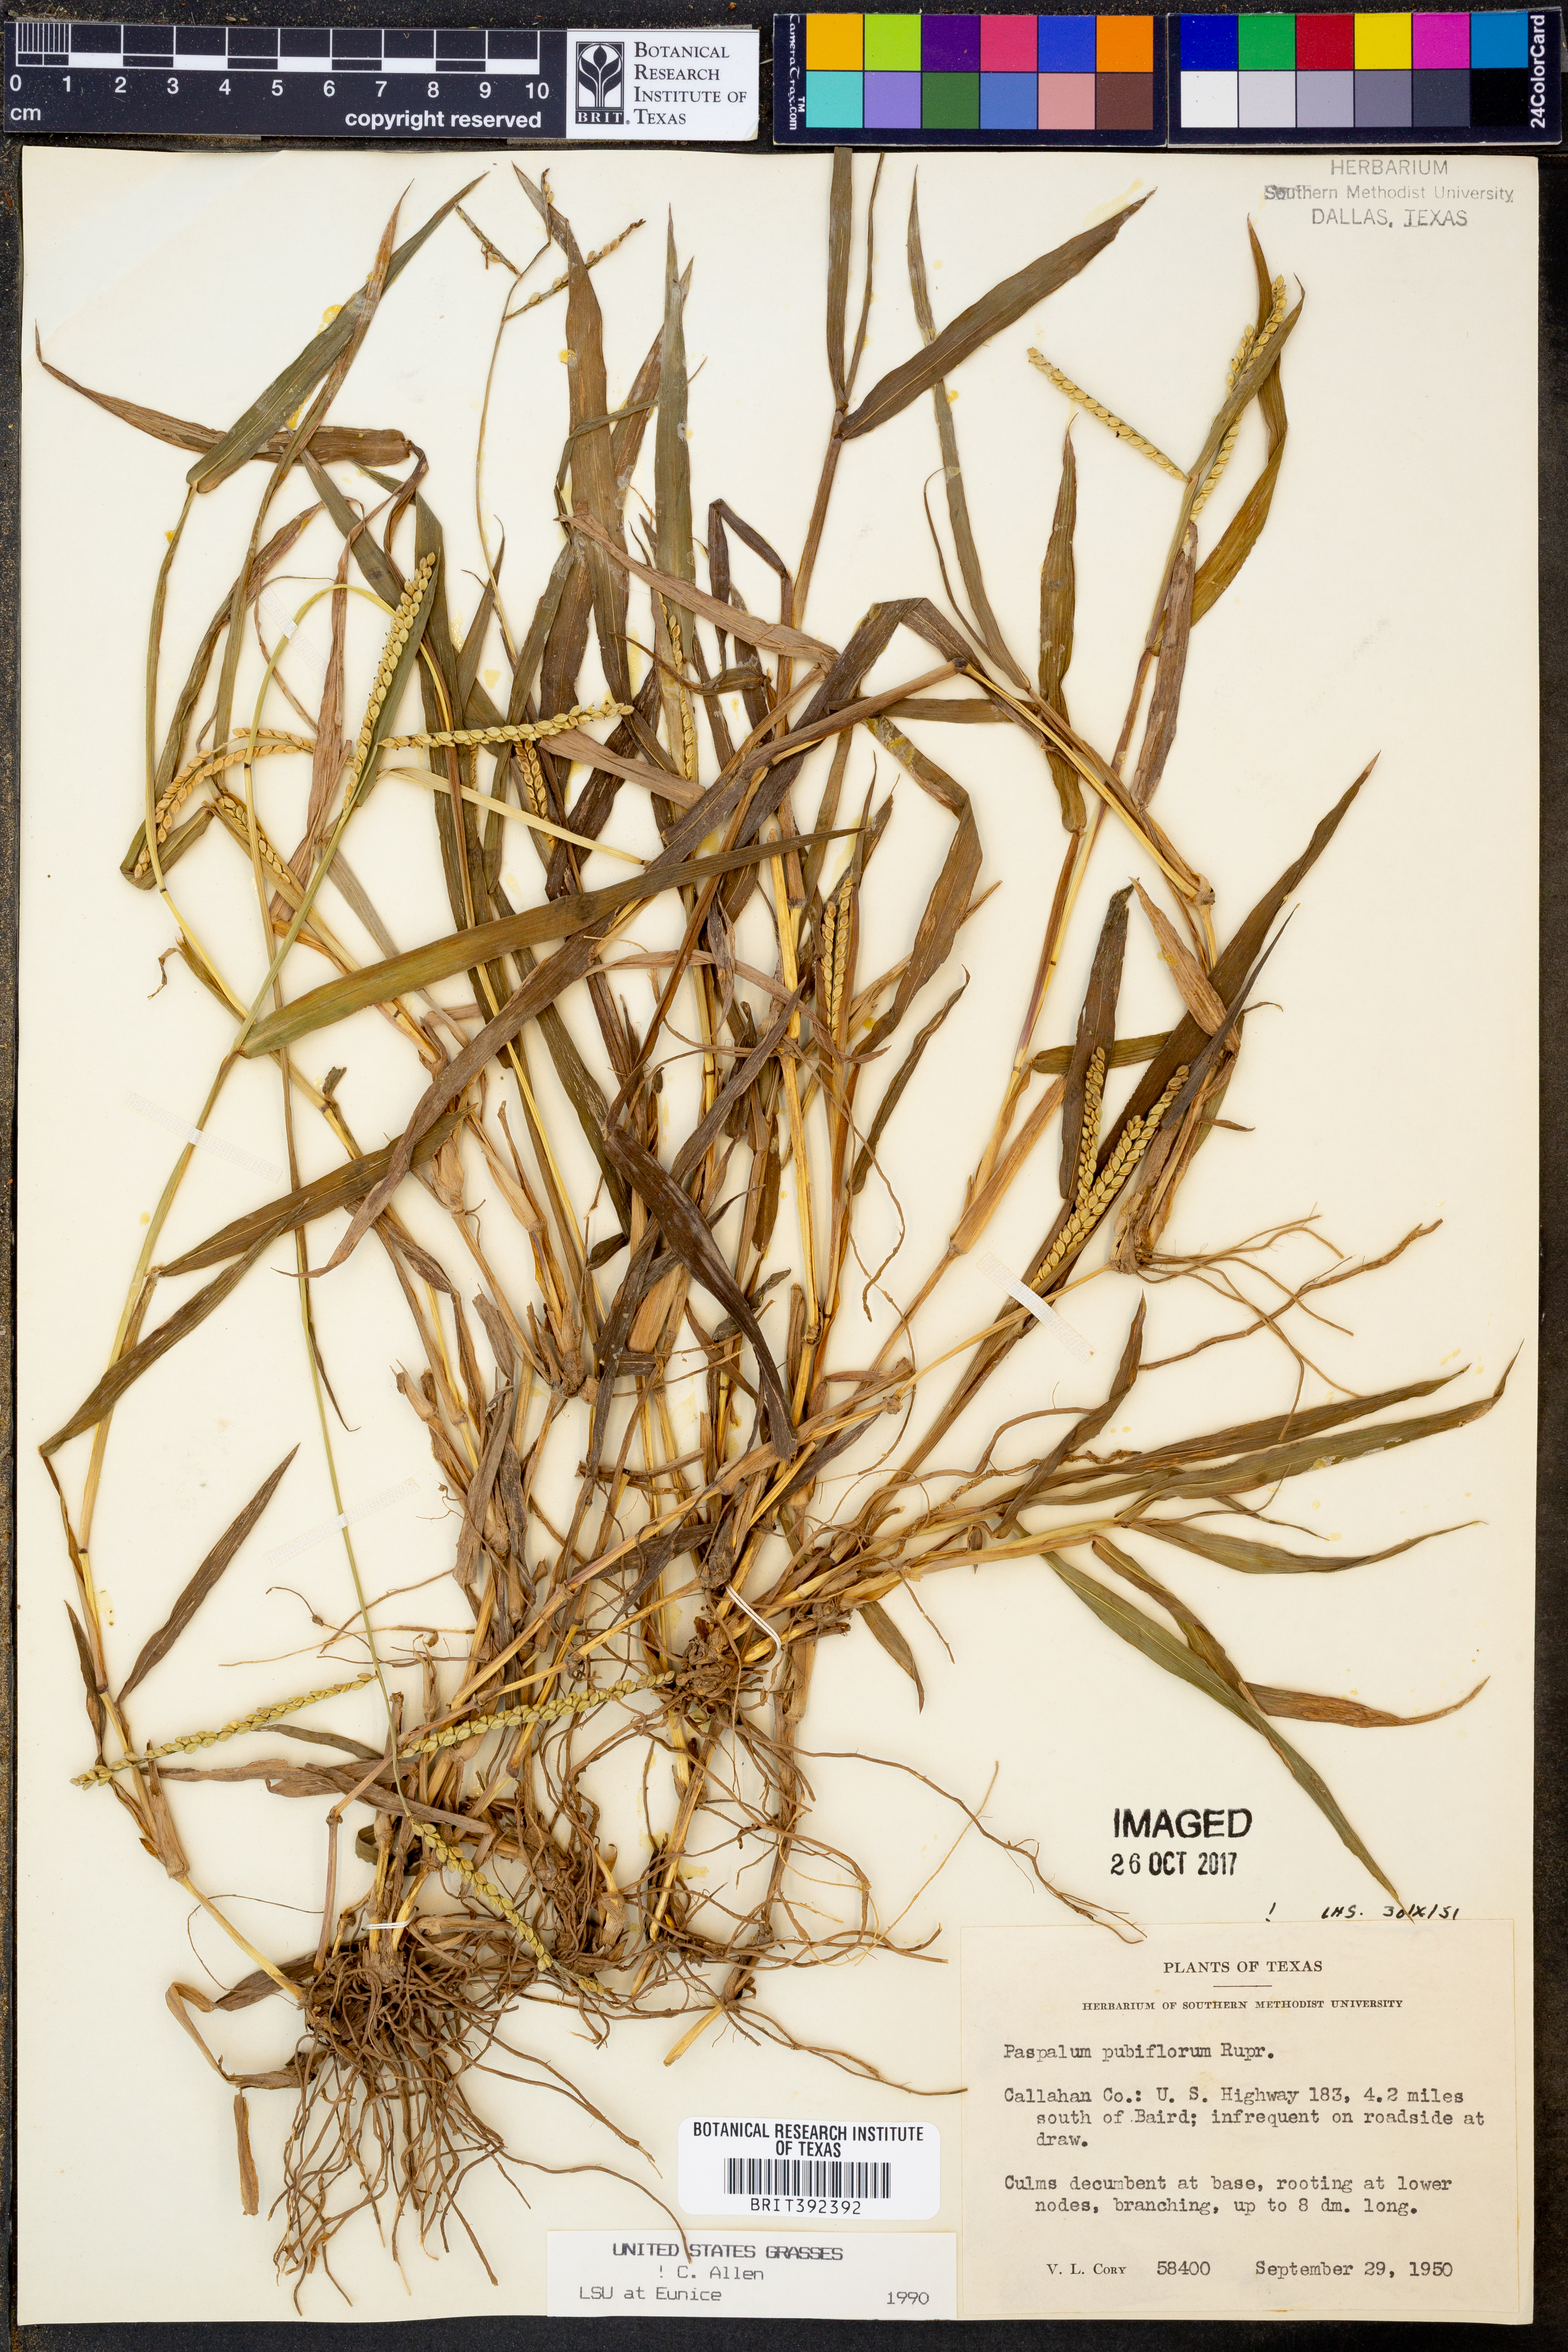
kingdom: Plantae
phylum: Tracheophyta
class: Liliopsida
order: Poales
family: Poaceae
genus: Paspalum
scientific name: Paspalum pubiflorum
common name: Hairy-seed paspalum
